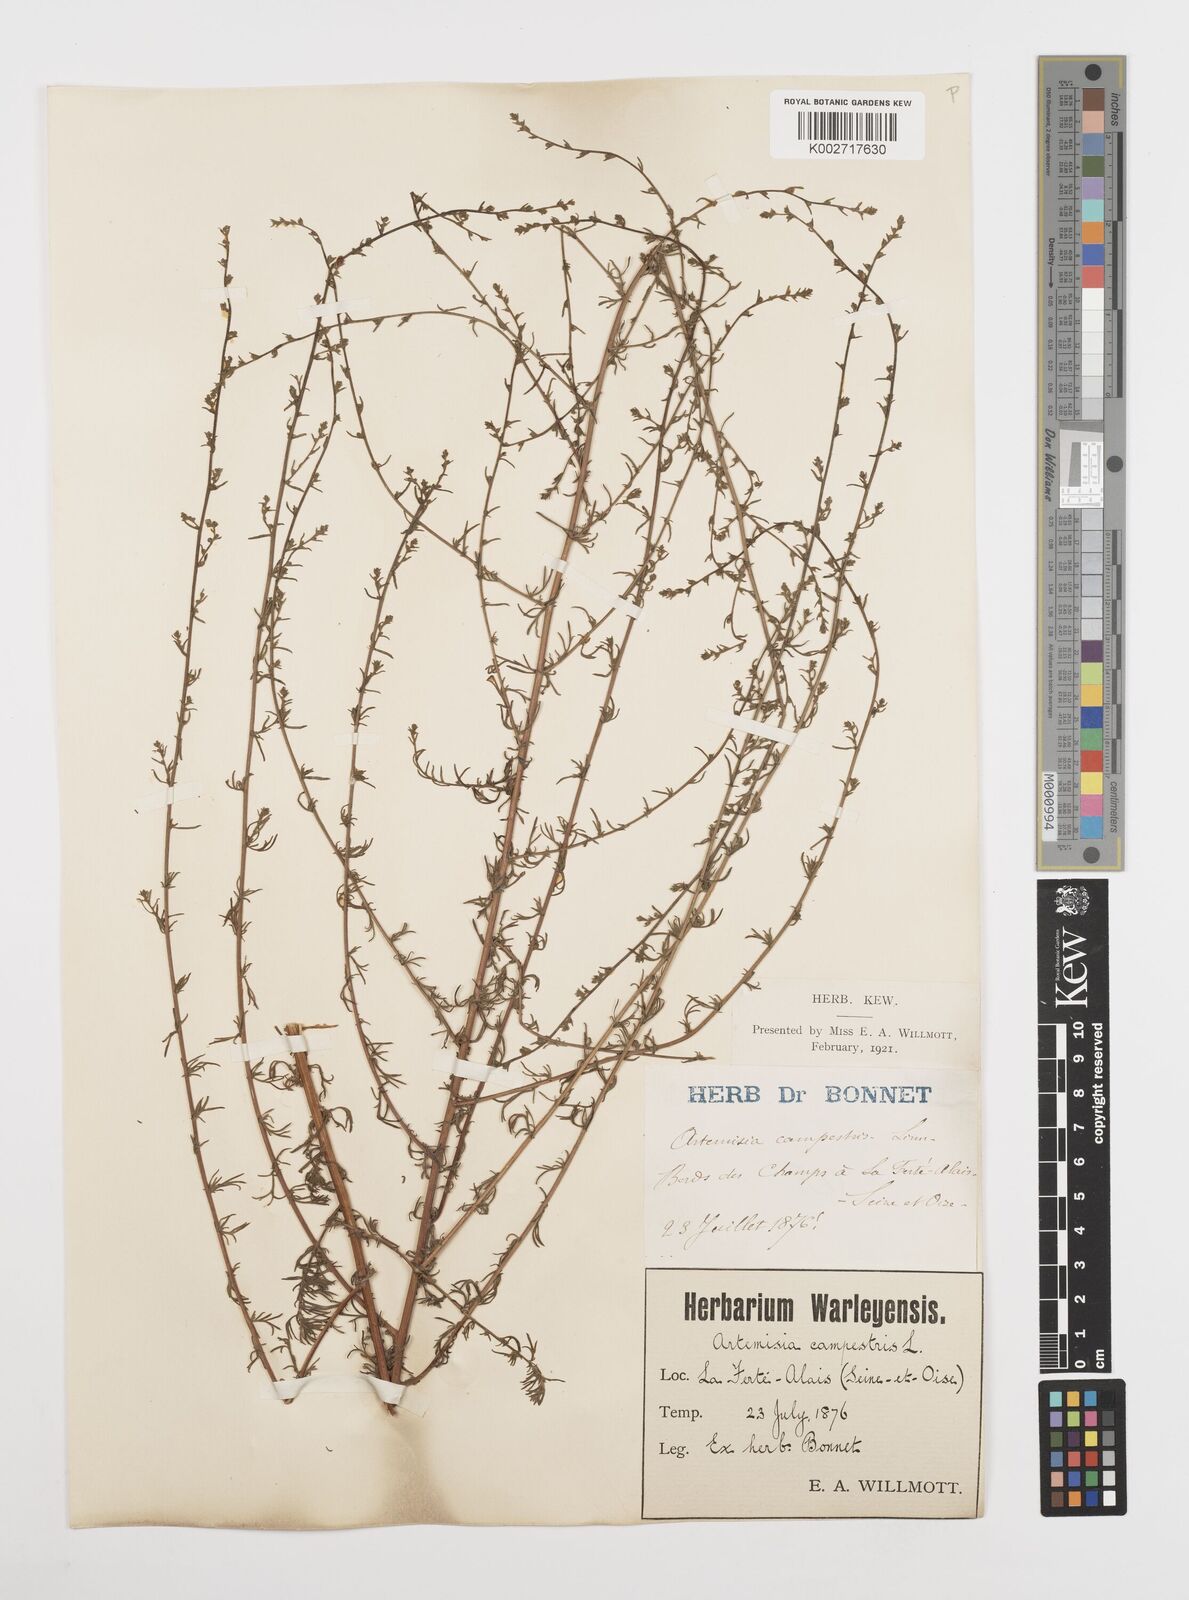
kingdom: Plantae
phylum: Tracheophyta
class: Magnoliopsida
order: Asterales
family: Asteraceae
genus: Artemisia
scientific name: Artemisia campestris
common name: Field wormwood
